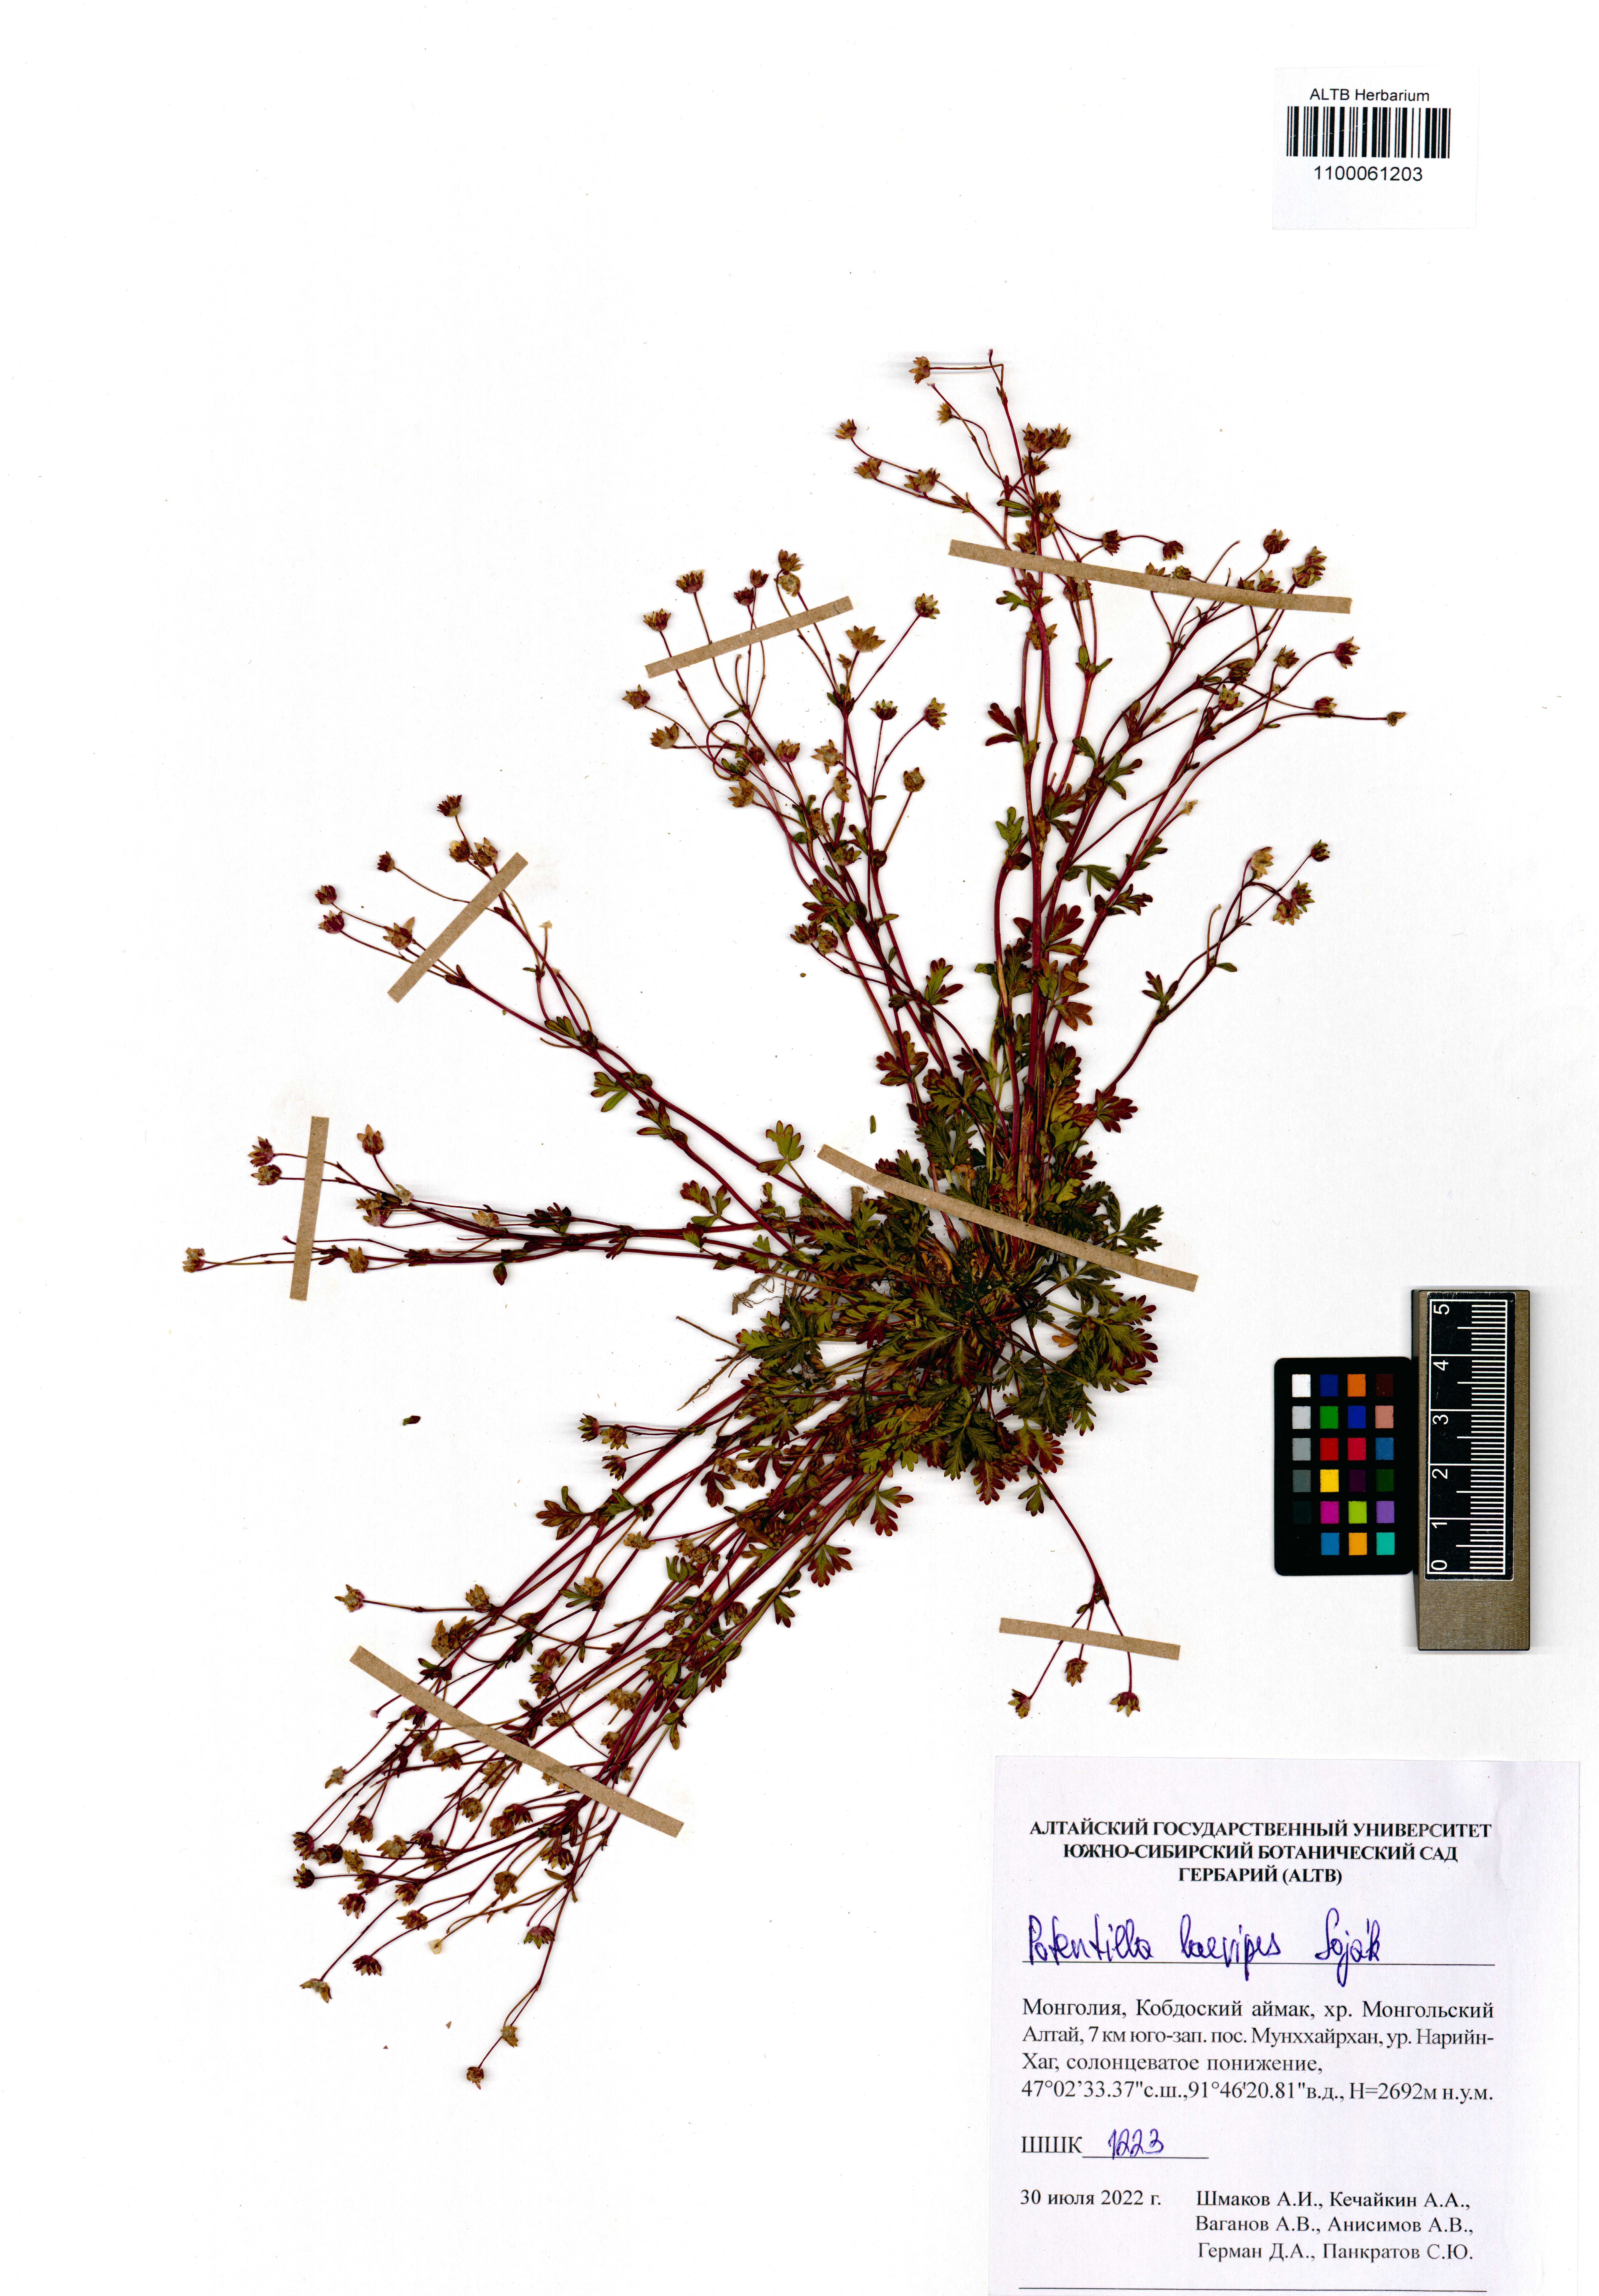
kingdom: Plantae
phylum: Tracheophyta
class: Magnoliopsida
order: Rosales
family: Rosaceae
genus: Potentilla
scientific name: Potentilla laevipes
